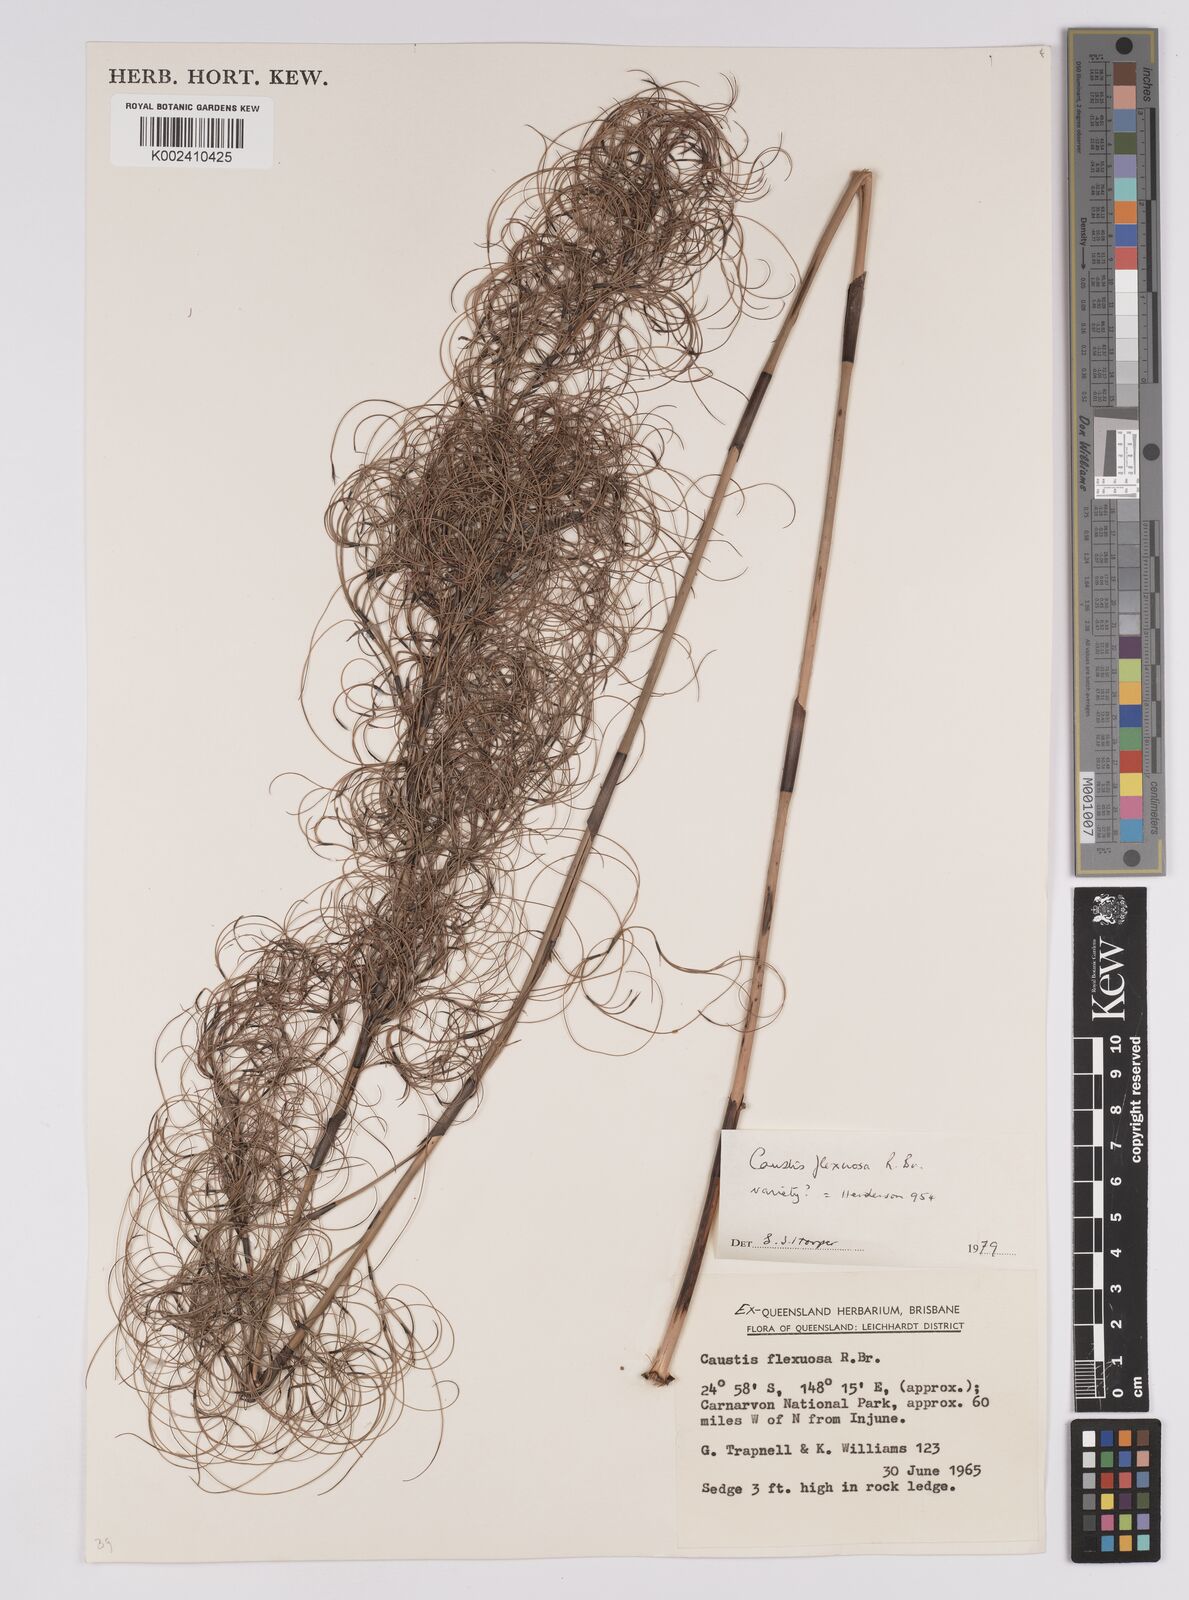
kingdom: Plantae
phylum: Tracheophyta
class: Liliopsida
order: Poales
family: Cyperaceae
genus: Caustis
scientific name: Caustis flexuosa
